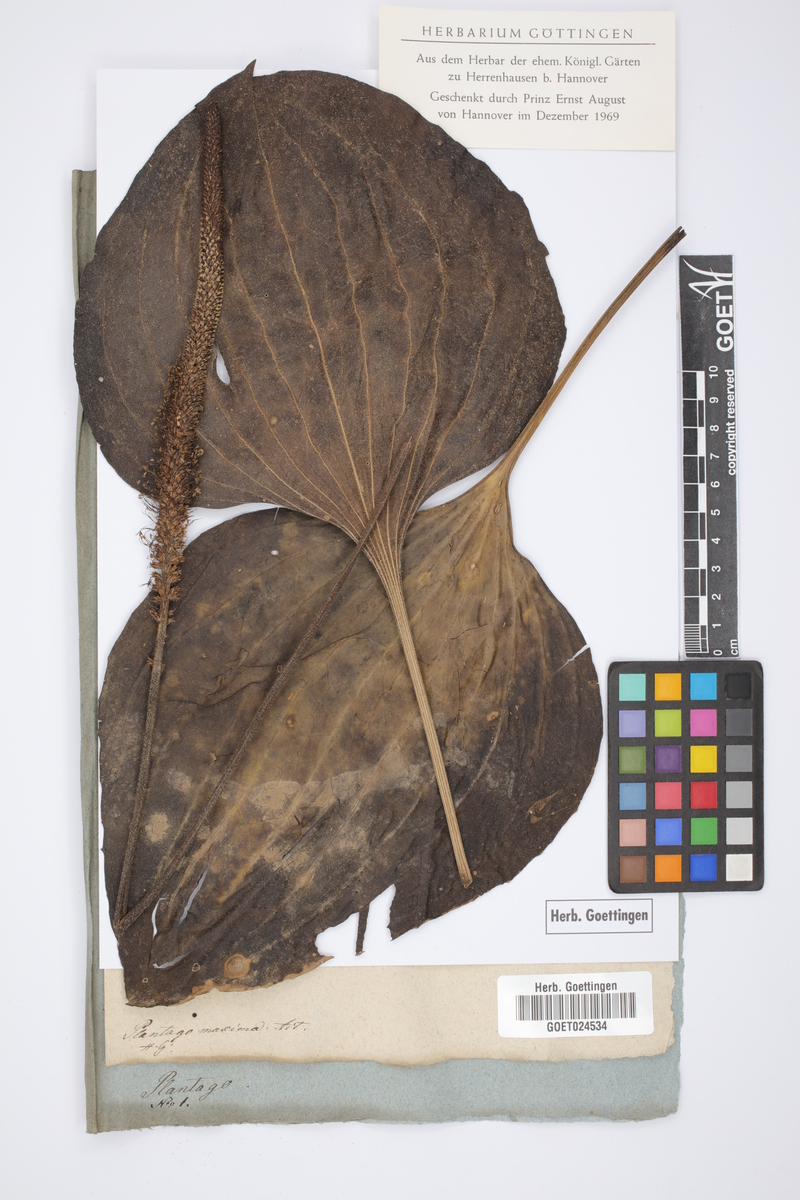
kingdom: Plantae
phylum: Tracheophyta
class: Magnoliopsida
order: Lamiales
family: Plantaginaceae
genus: Plantago
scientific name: Plantago maxima
